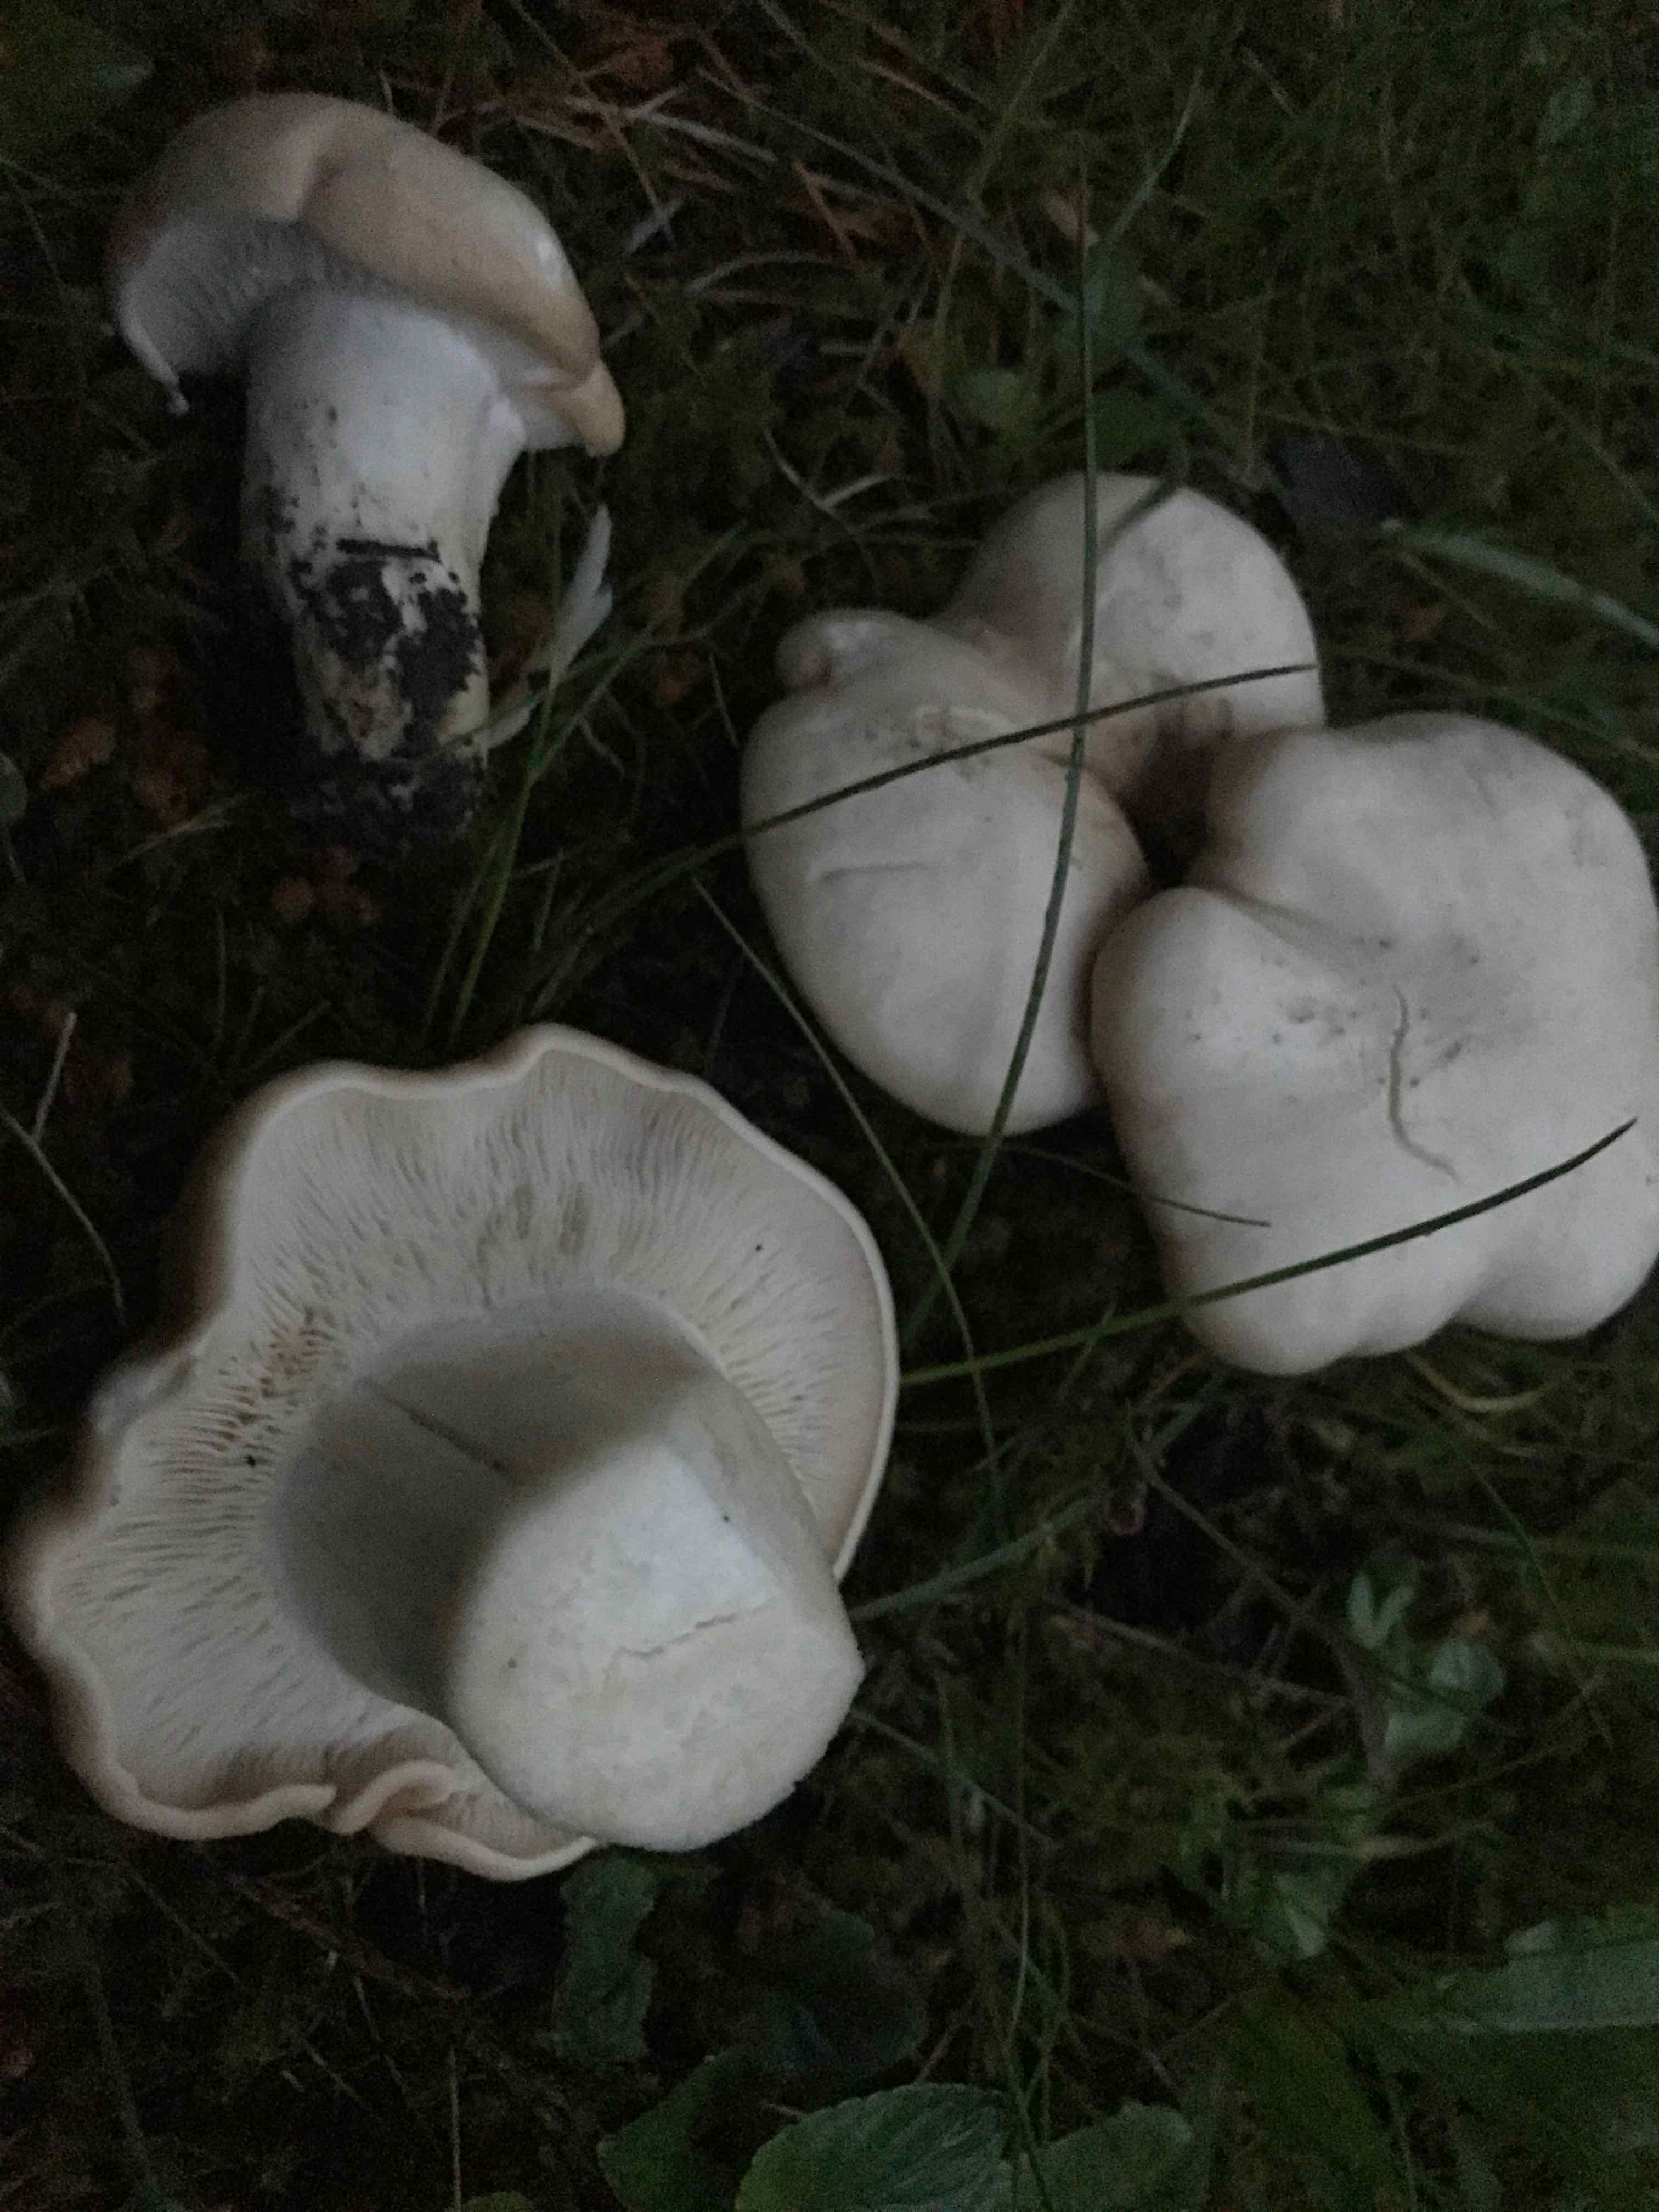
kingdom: Fungi
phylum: Basidiomycota
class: Agaricomycetes
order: Agaricales
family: Lyophyllaceae
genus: Calocybe
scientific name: Calocybe gambosa
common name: vårmusseron
